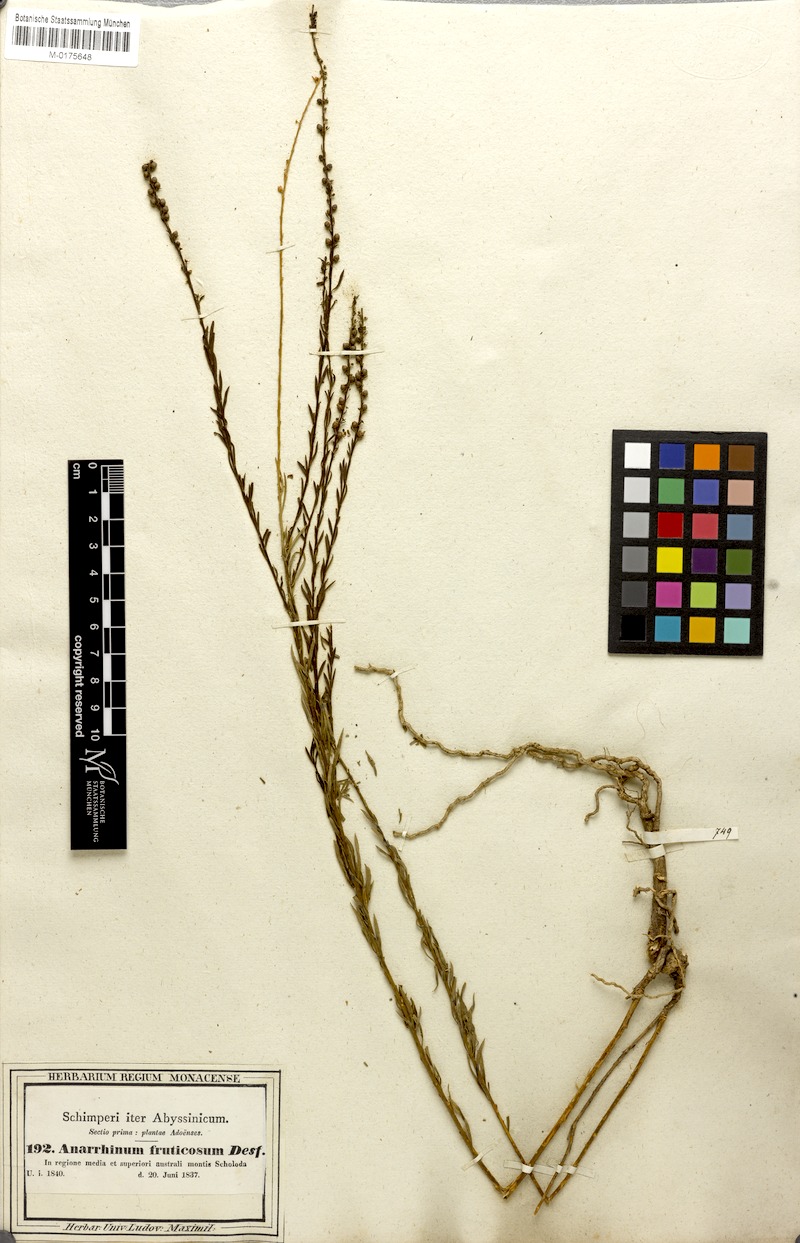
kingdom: Plantae
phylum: Tracheophyta
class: Magnoliopsida
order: Lamiales
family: Plantaginaceae
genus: Anarrhinum
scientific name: Anarrhinum fruticosum
